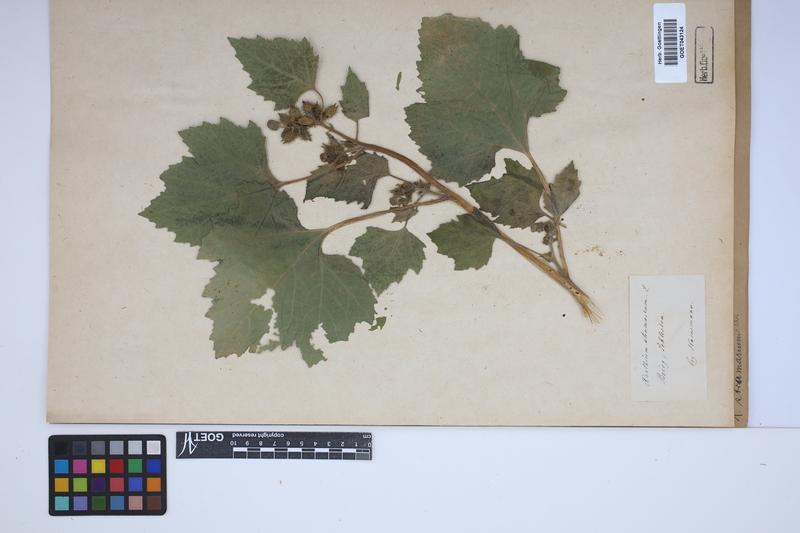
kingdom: Plantae
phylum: Tracheophyta
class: Magnoliopsida
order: Asterales
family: Asteraceae
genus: Xanthium
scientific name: Xanthium strumarium
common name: Rough cocklebur
